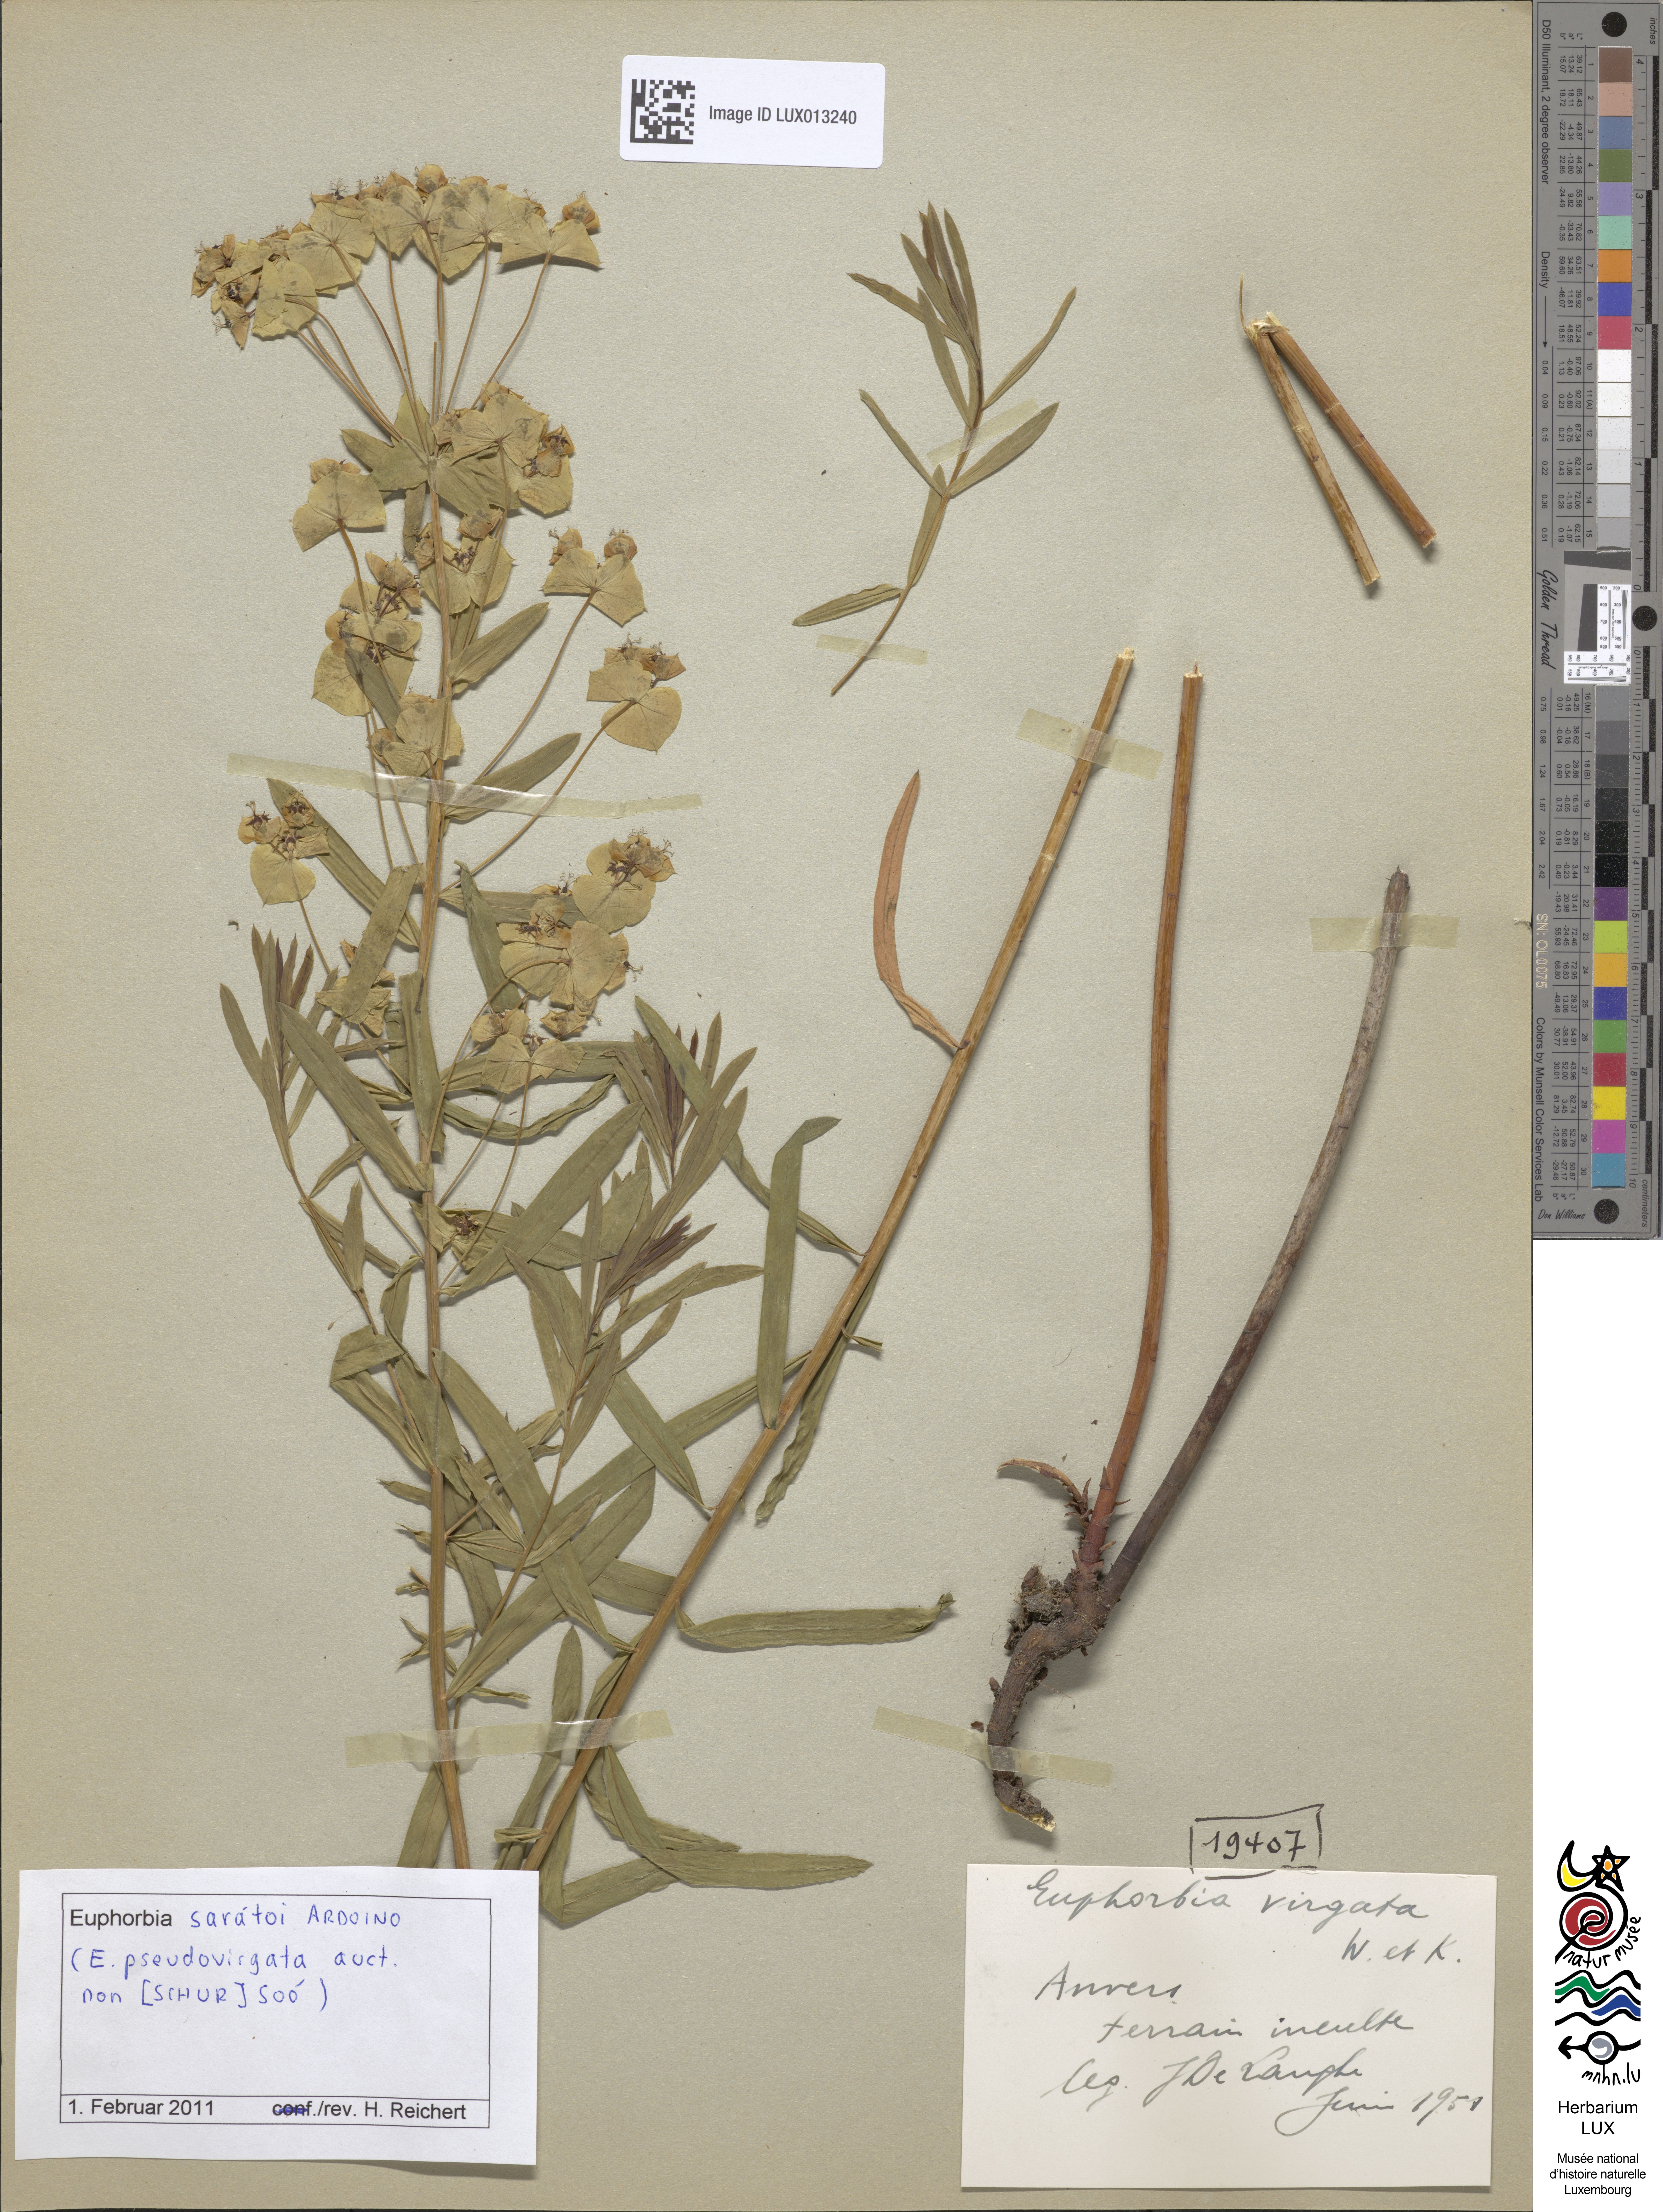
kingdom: Plantae
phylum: Tracheophyta
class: Magnoliopsida
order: Malpighiales
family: Euphorbiaceae
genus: Euphorbia
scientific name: Euphorbia saratoi
